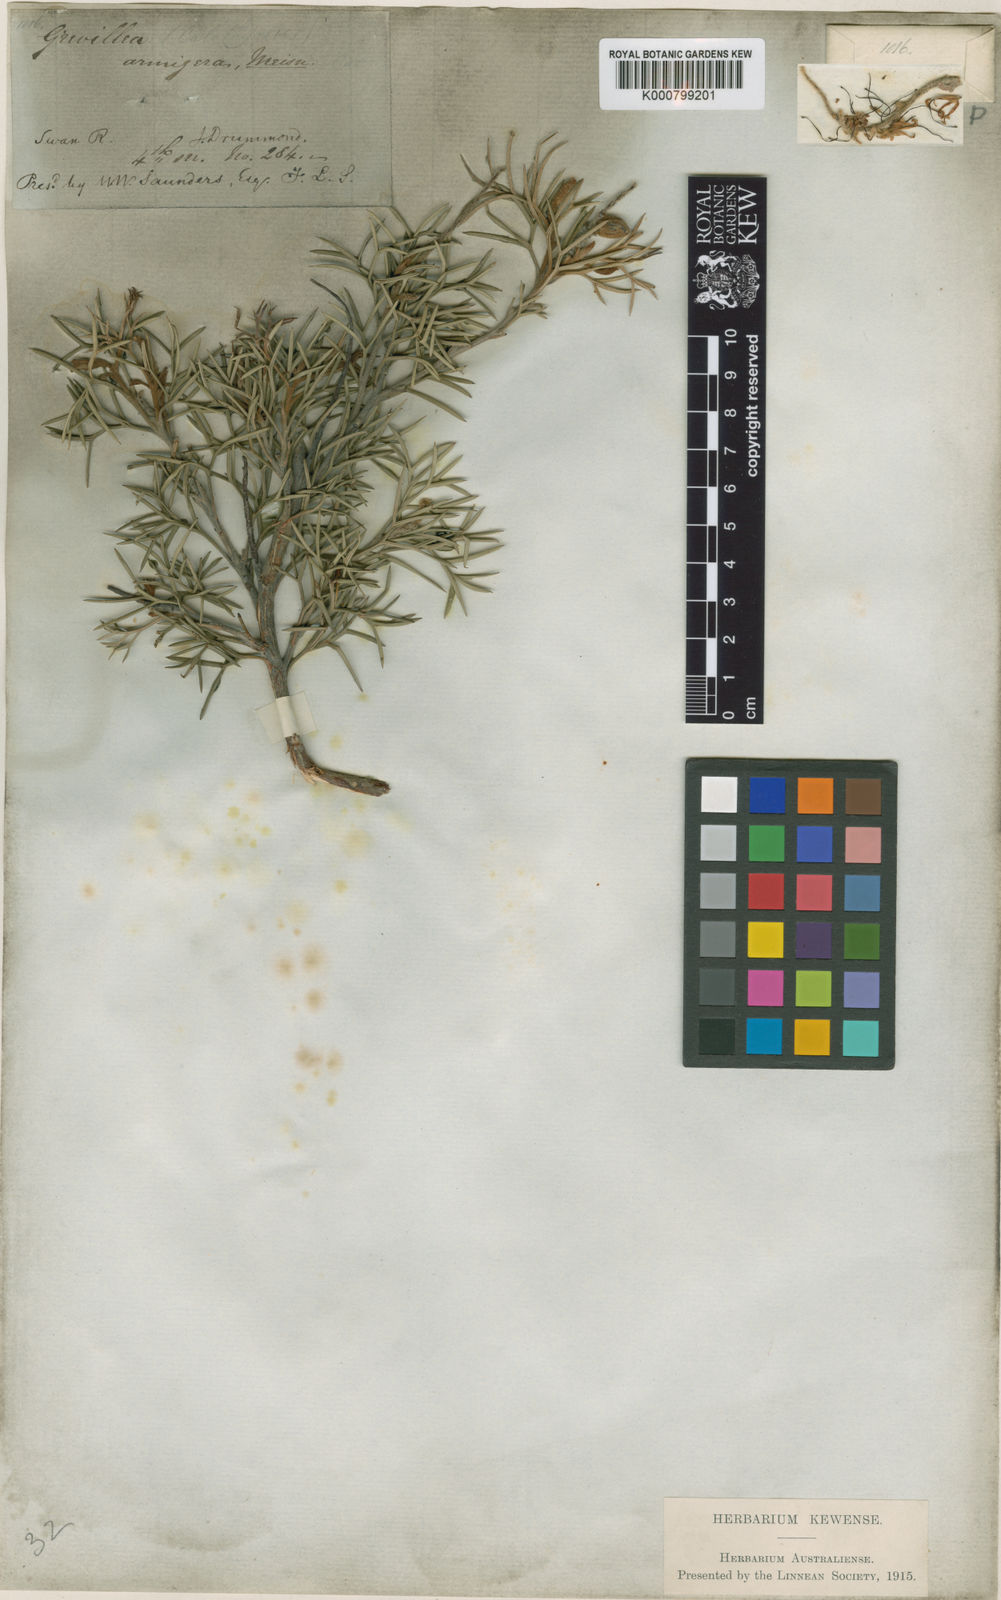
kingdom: Plantae
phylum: Tracheophyta
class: Magnoliopsida
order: Proteales
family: Proteaceae
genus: Grevillea
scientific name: Grevillea armigera
